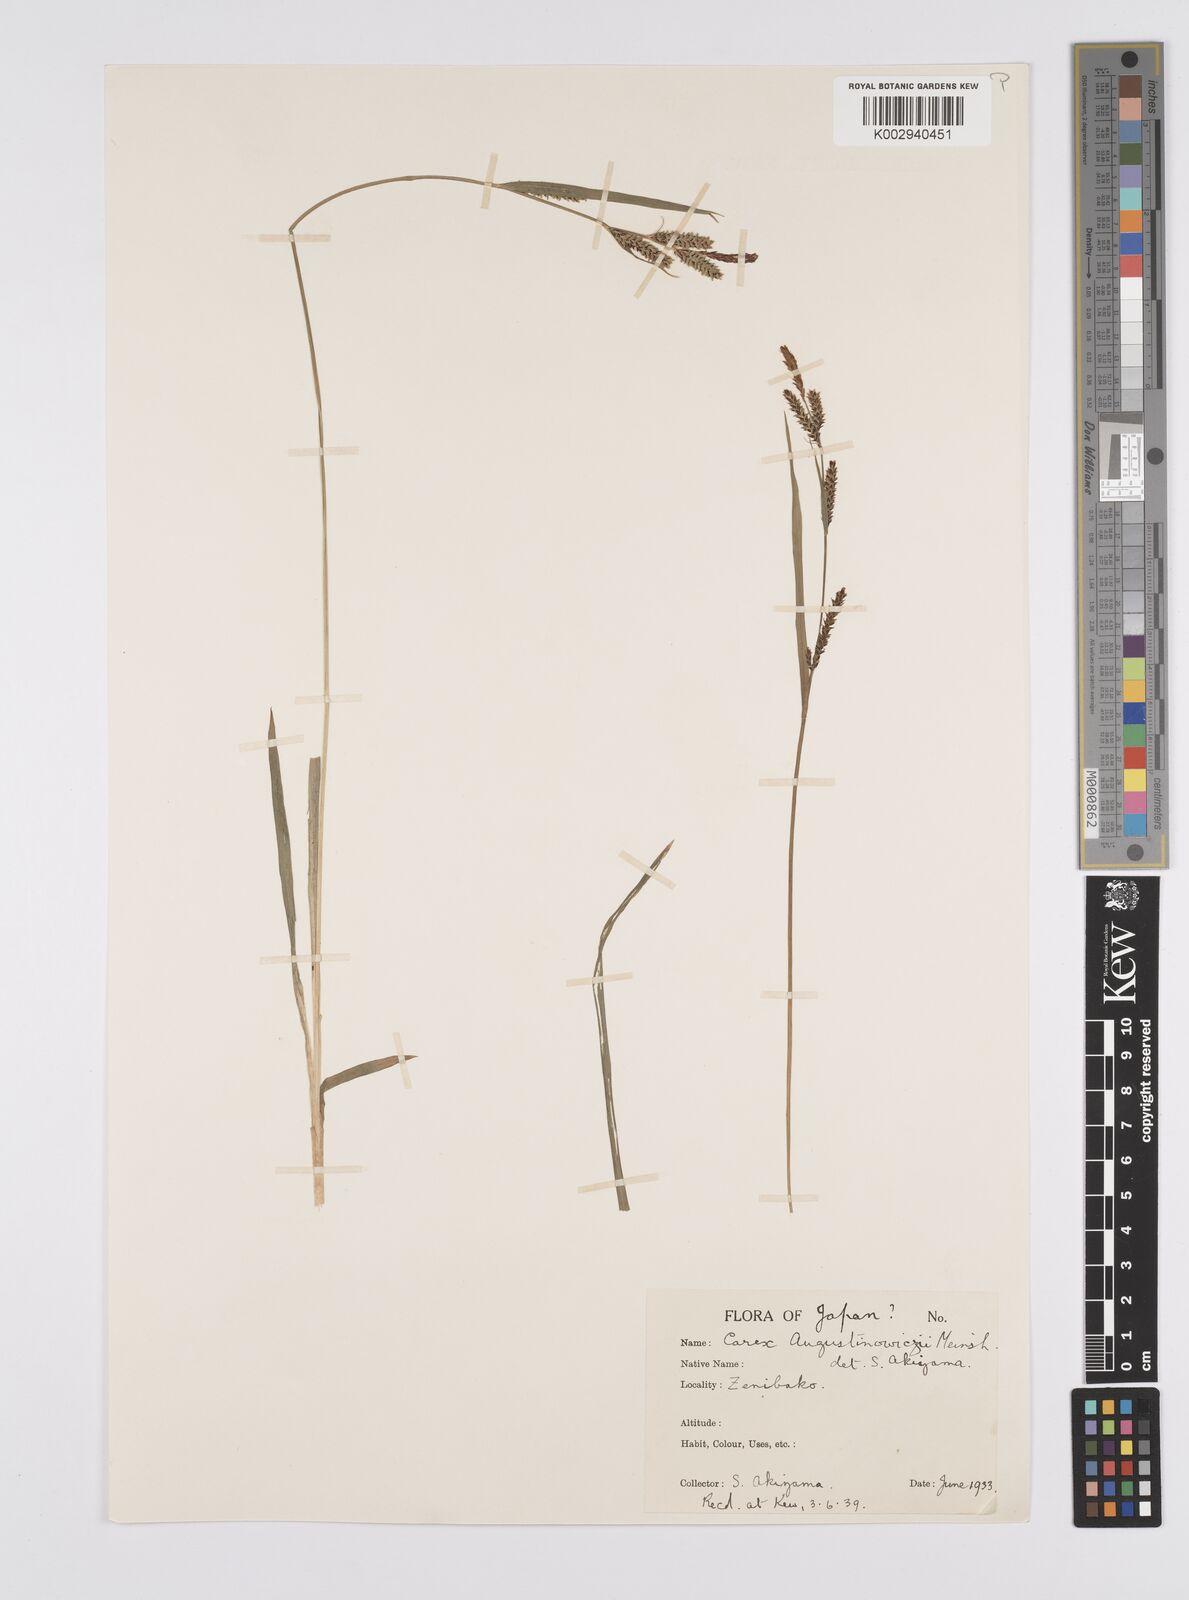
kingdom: Plantae
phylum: Tracheophyta
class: Liliopsida
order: Poales
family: Cyperaceae
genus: Carex
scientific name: Carex augustinowiczii
